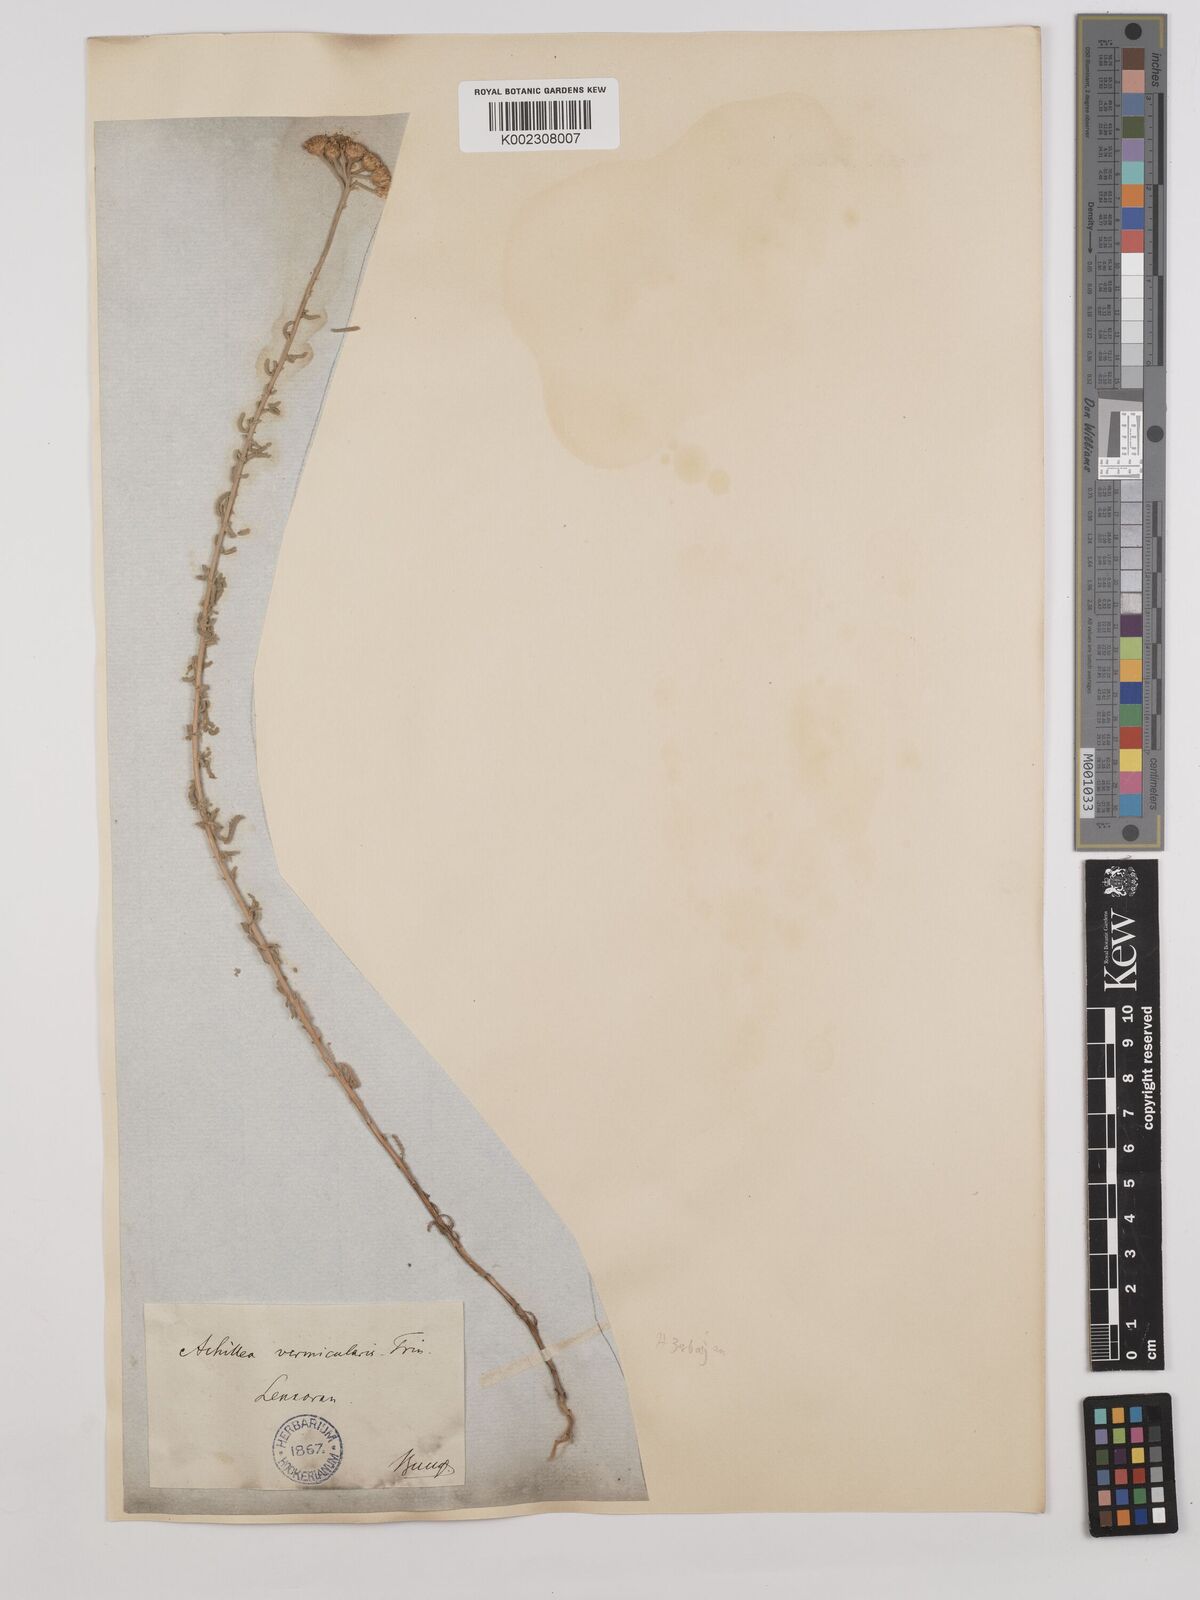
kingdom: Plantae
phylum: Tracheophyta
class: Magnoliopsida
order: Asterales
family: Asteraceae
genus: Achillea
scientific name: Achillea vermicularis
